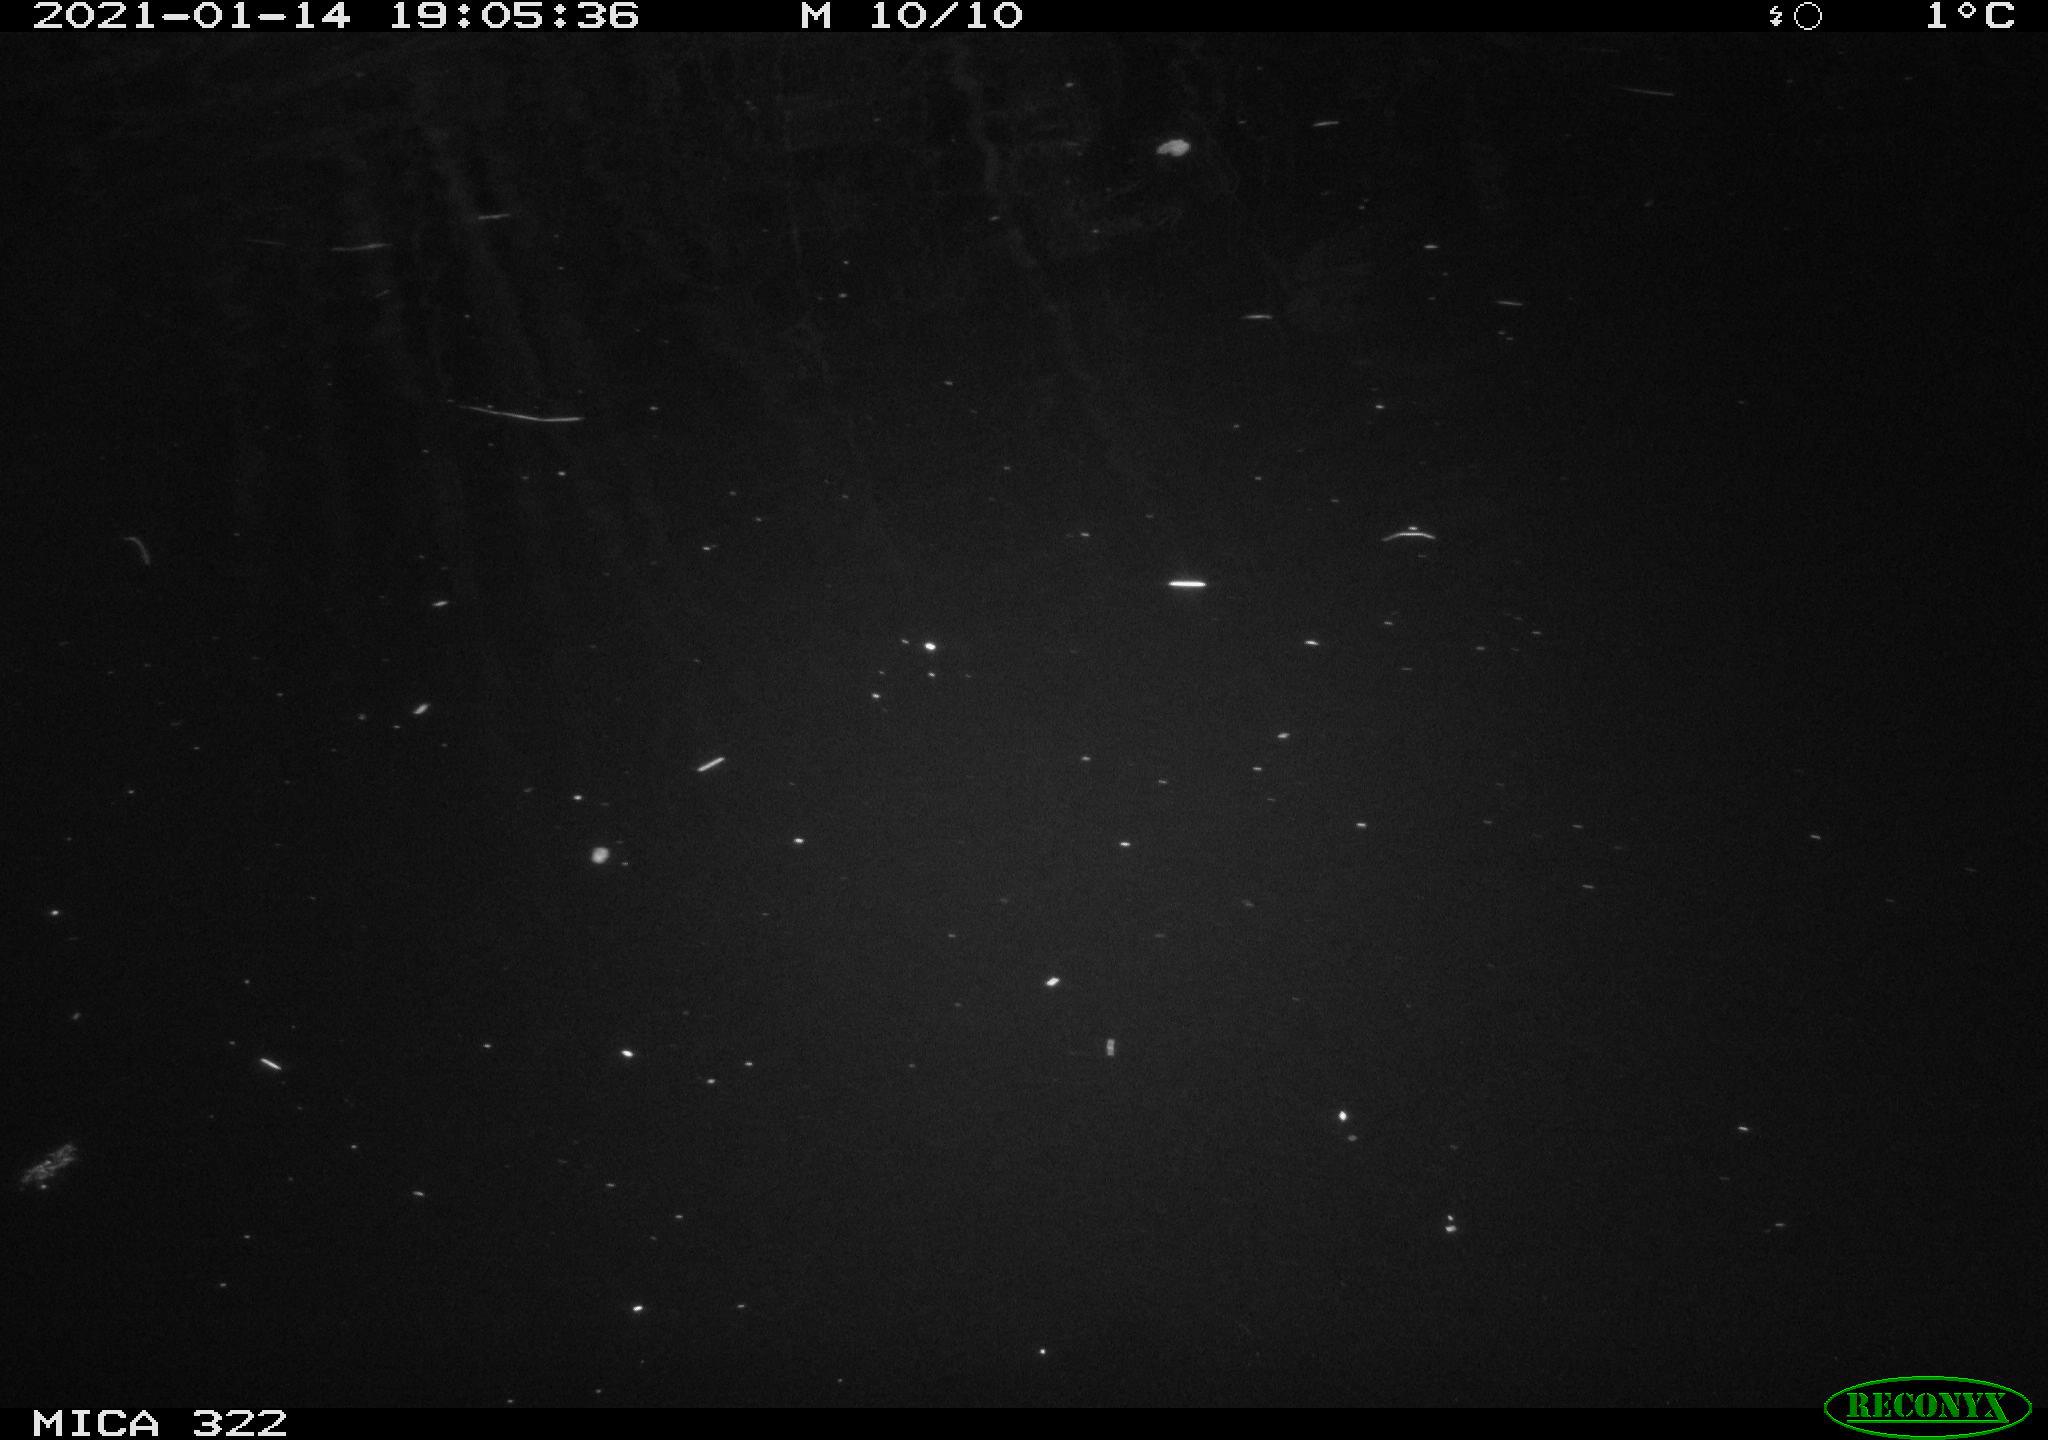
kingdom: Animalia
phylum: Chordata
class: Mammalia
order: Rodentia
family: Muridae
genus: Rattus
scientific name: Rattus norvegicus
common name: Brown rat
